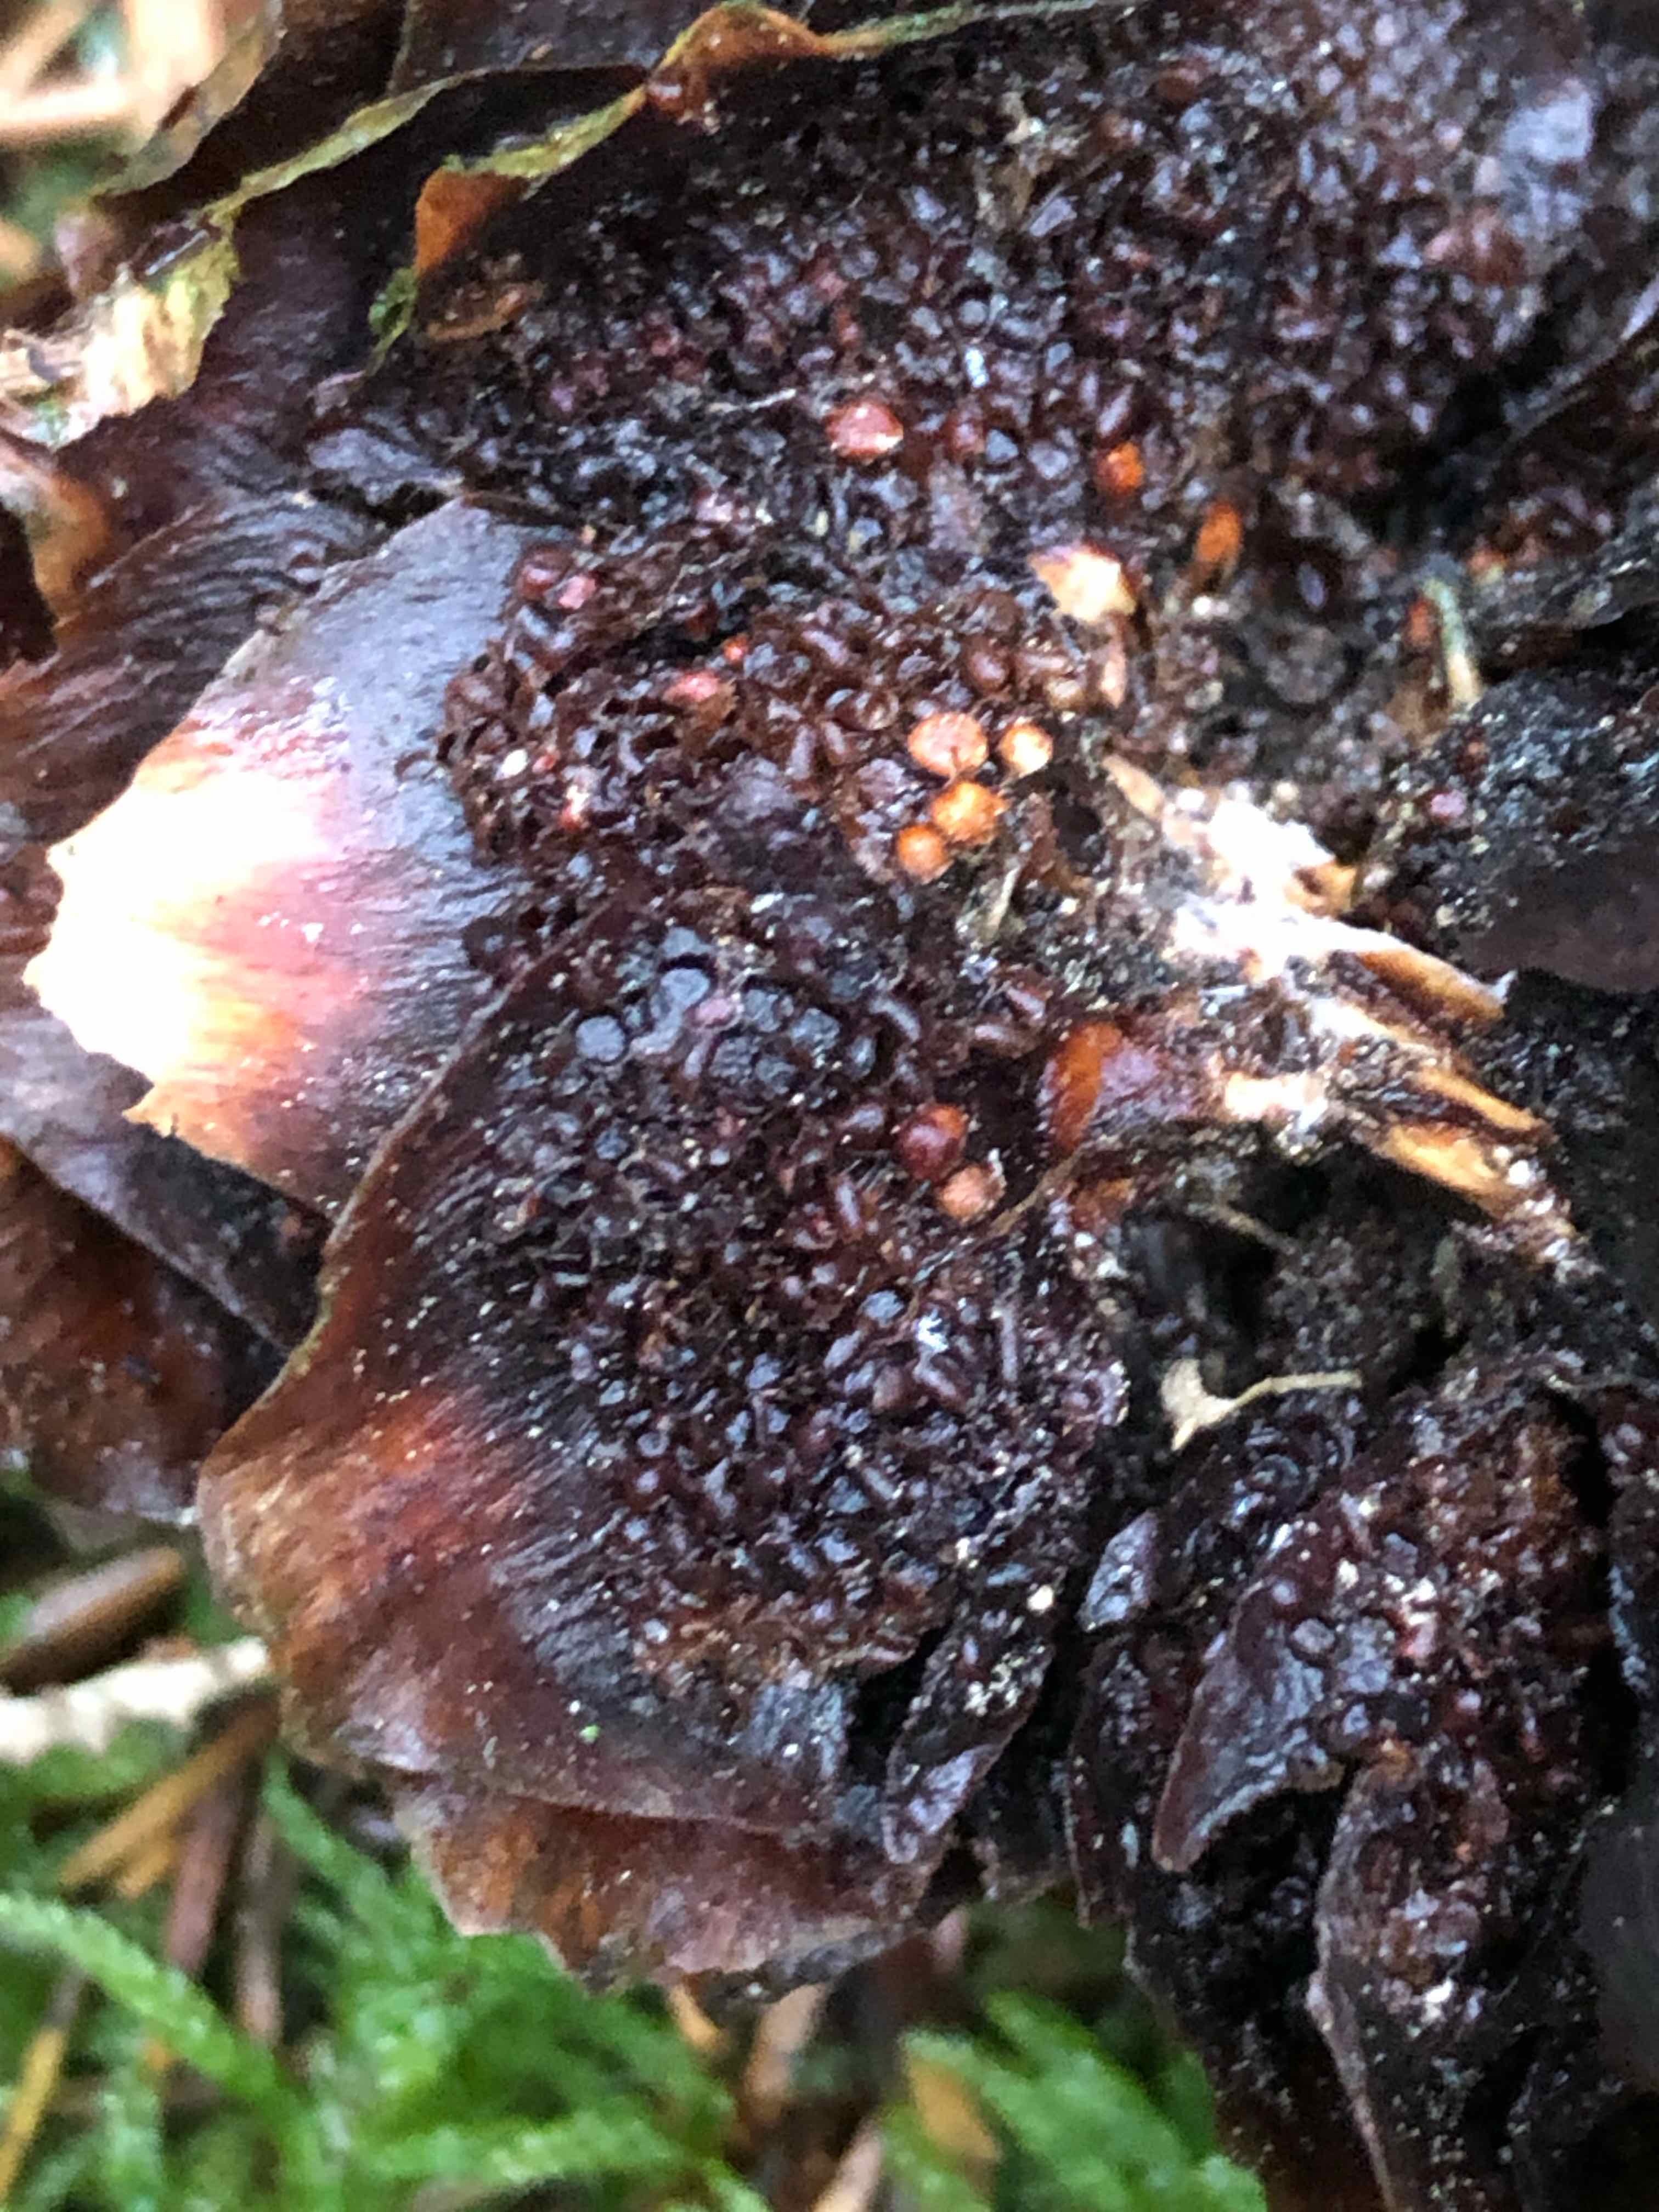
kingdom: Fungi
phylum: Basidiomycota
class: Pucciniomycetes
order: Pucciniales
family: Pucciniastraceae
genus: Thekopsora
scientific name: Thekopsora areolata
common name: grankogle-nålerust
